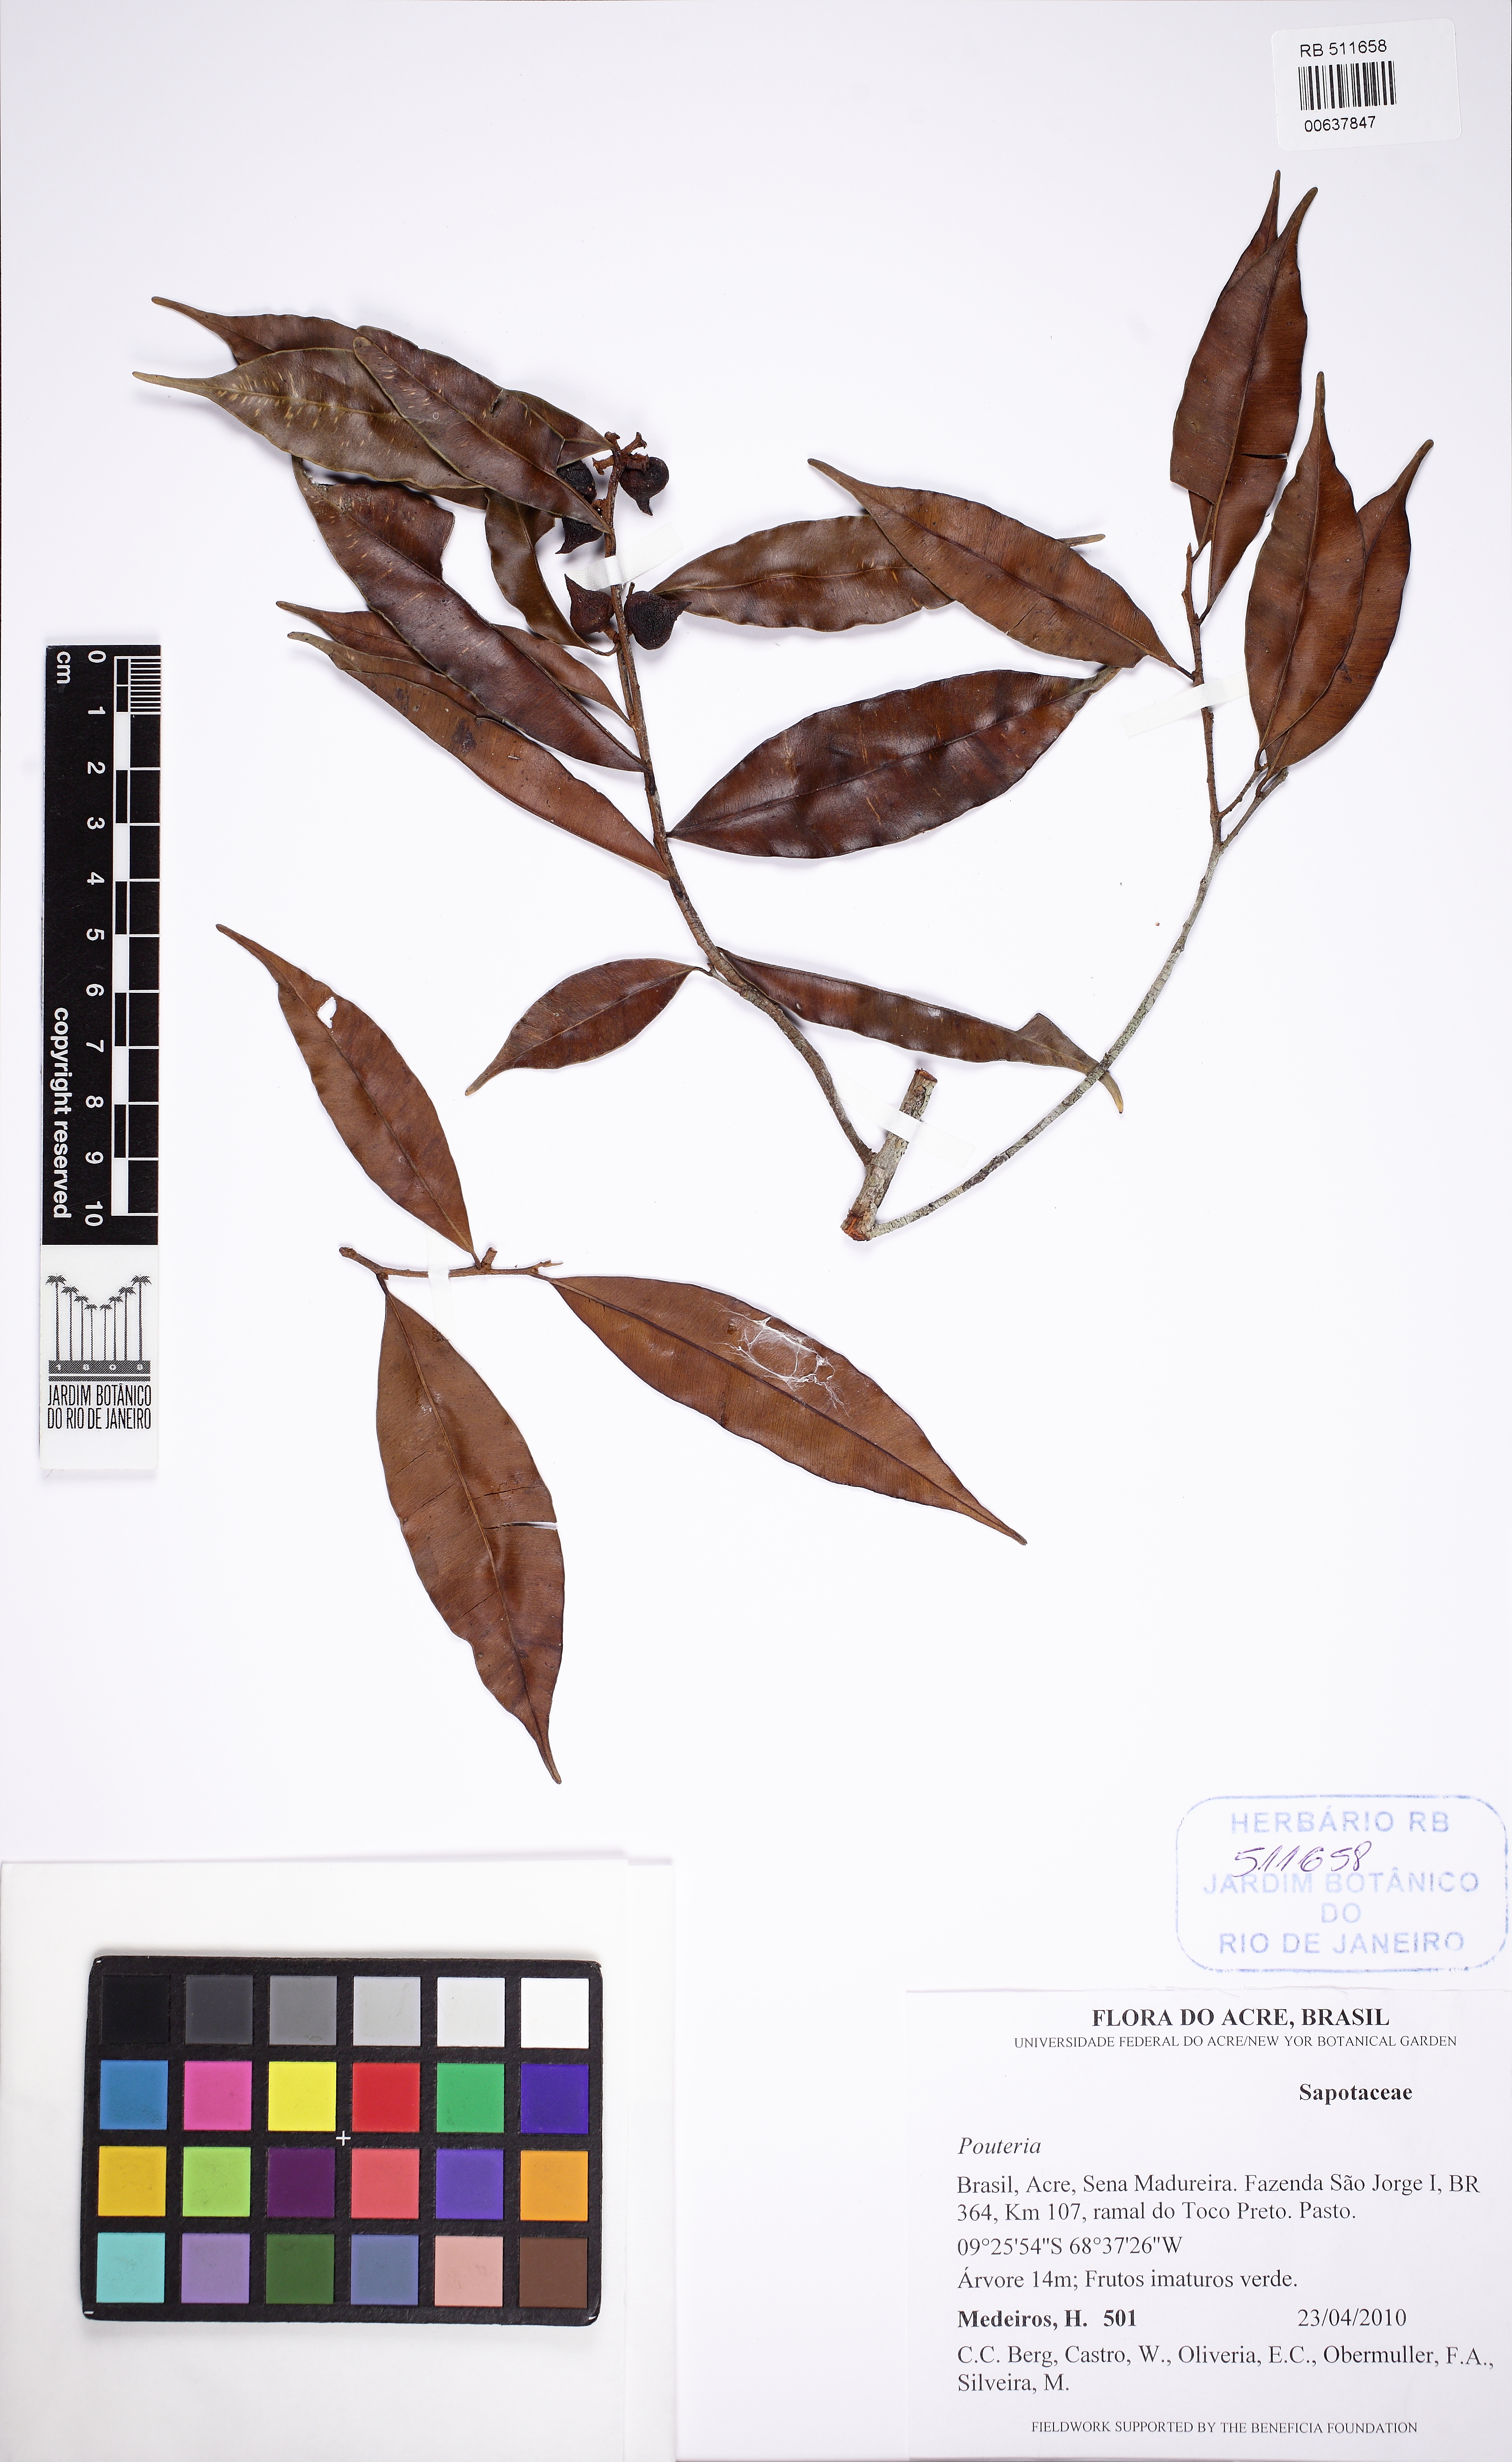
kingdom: Plantae
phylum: Tracheophyta
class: Magnoliopsida
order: Ericales
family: Sapotaceae
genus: Micropholis
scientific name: Micropholis
